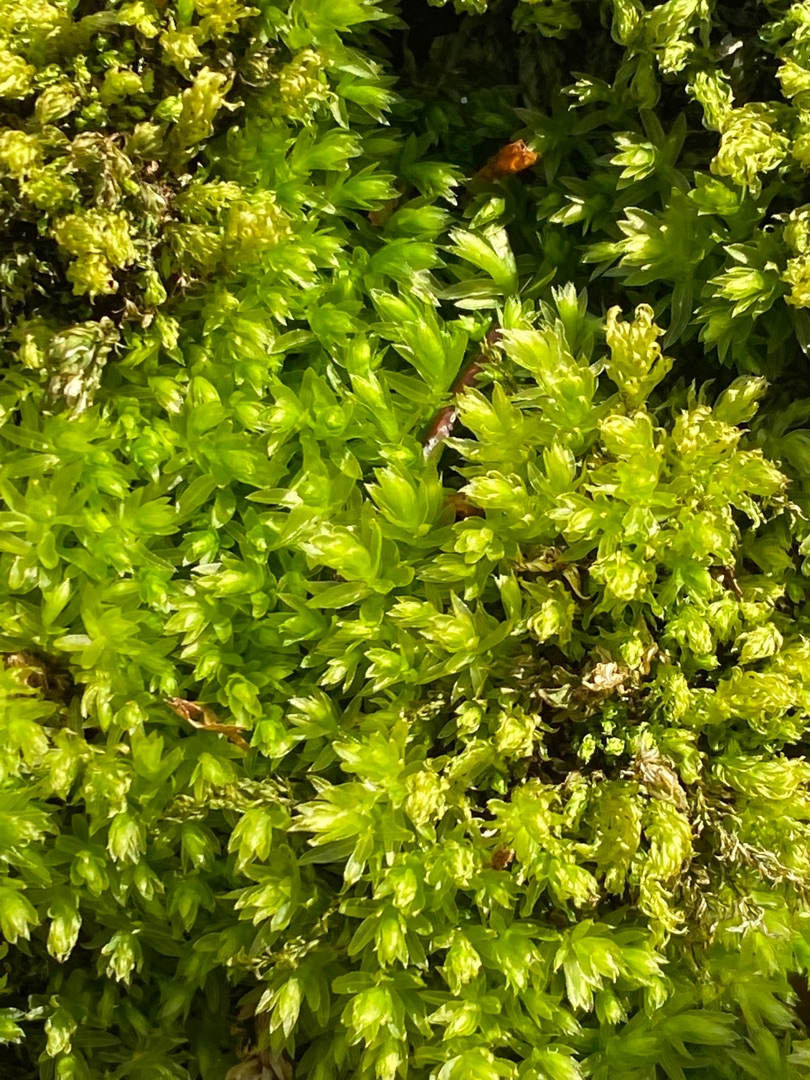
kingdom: Plantae
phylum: Bryophyta
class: Bryopsida
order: Bryales
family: Mniaceae
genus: Mnium
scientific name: Mnium hornum
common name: Brunfiltet stjernemos
